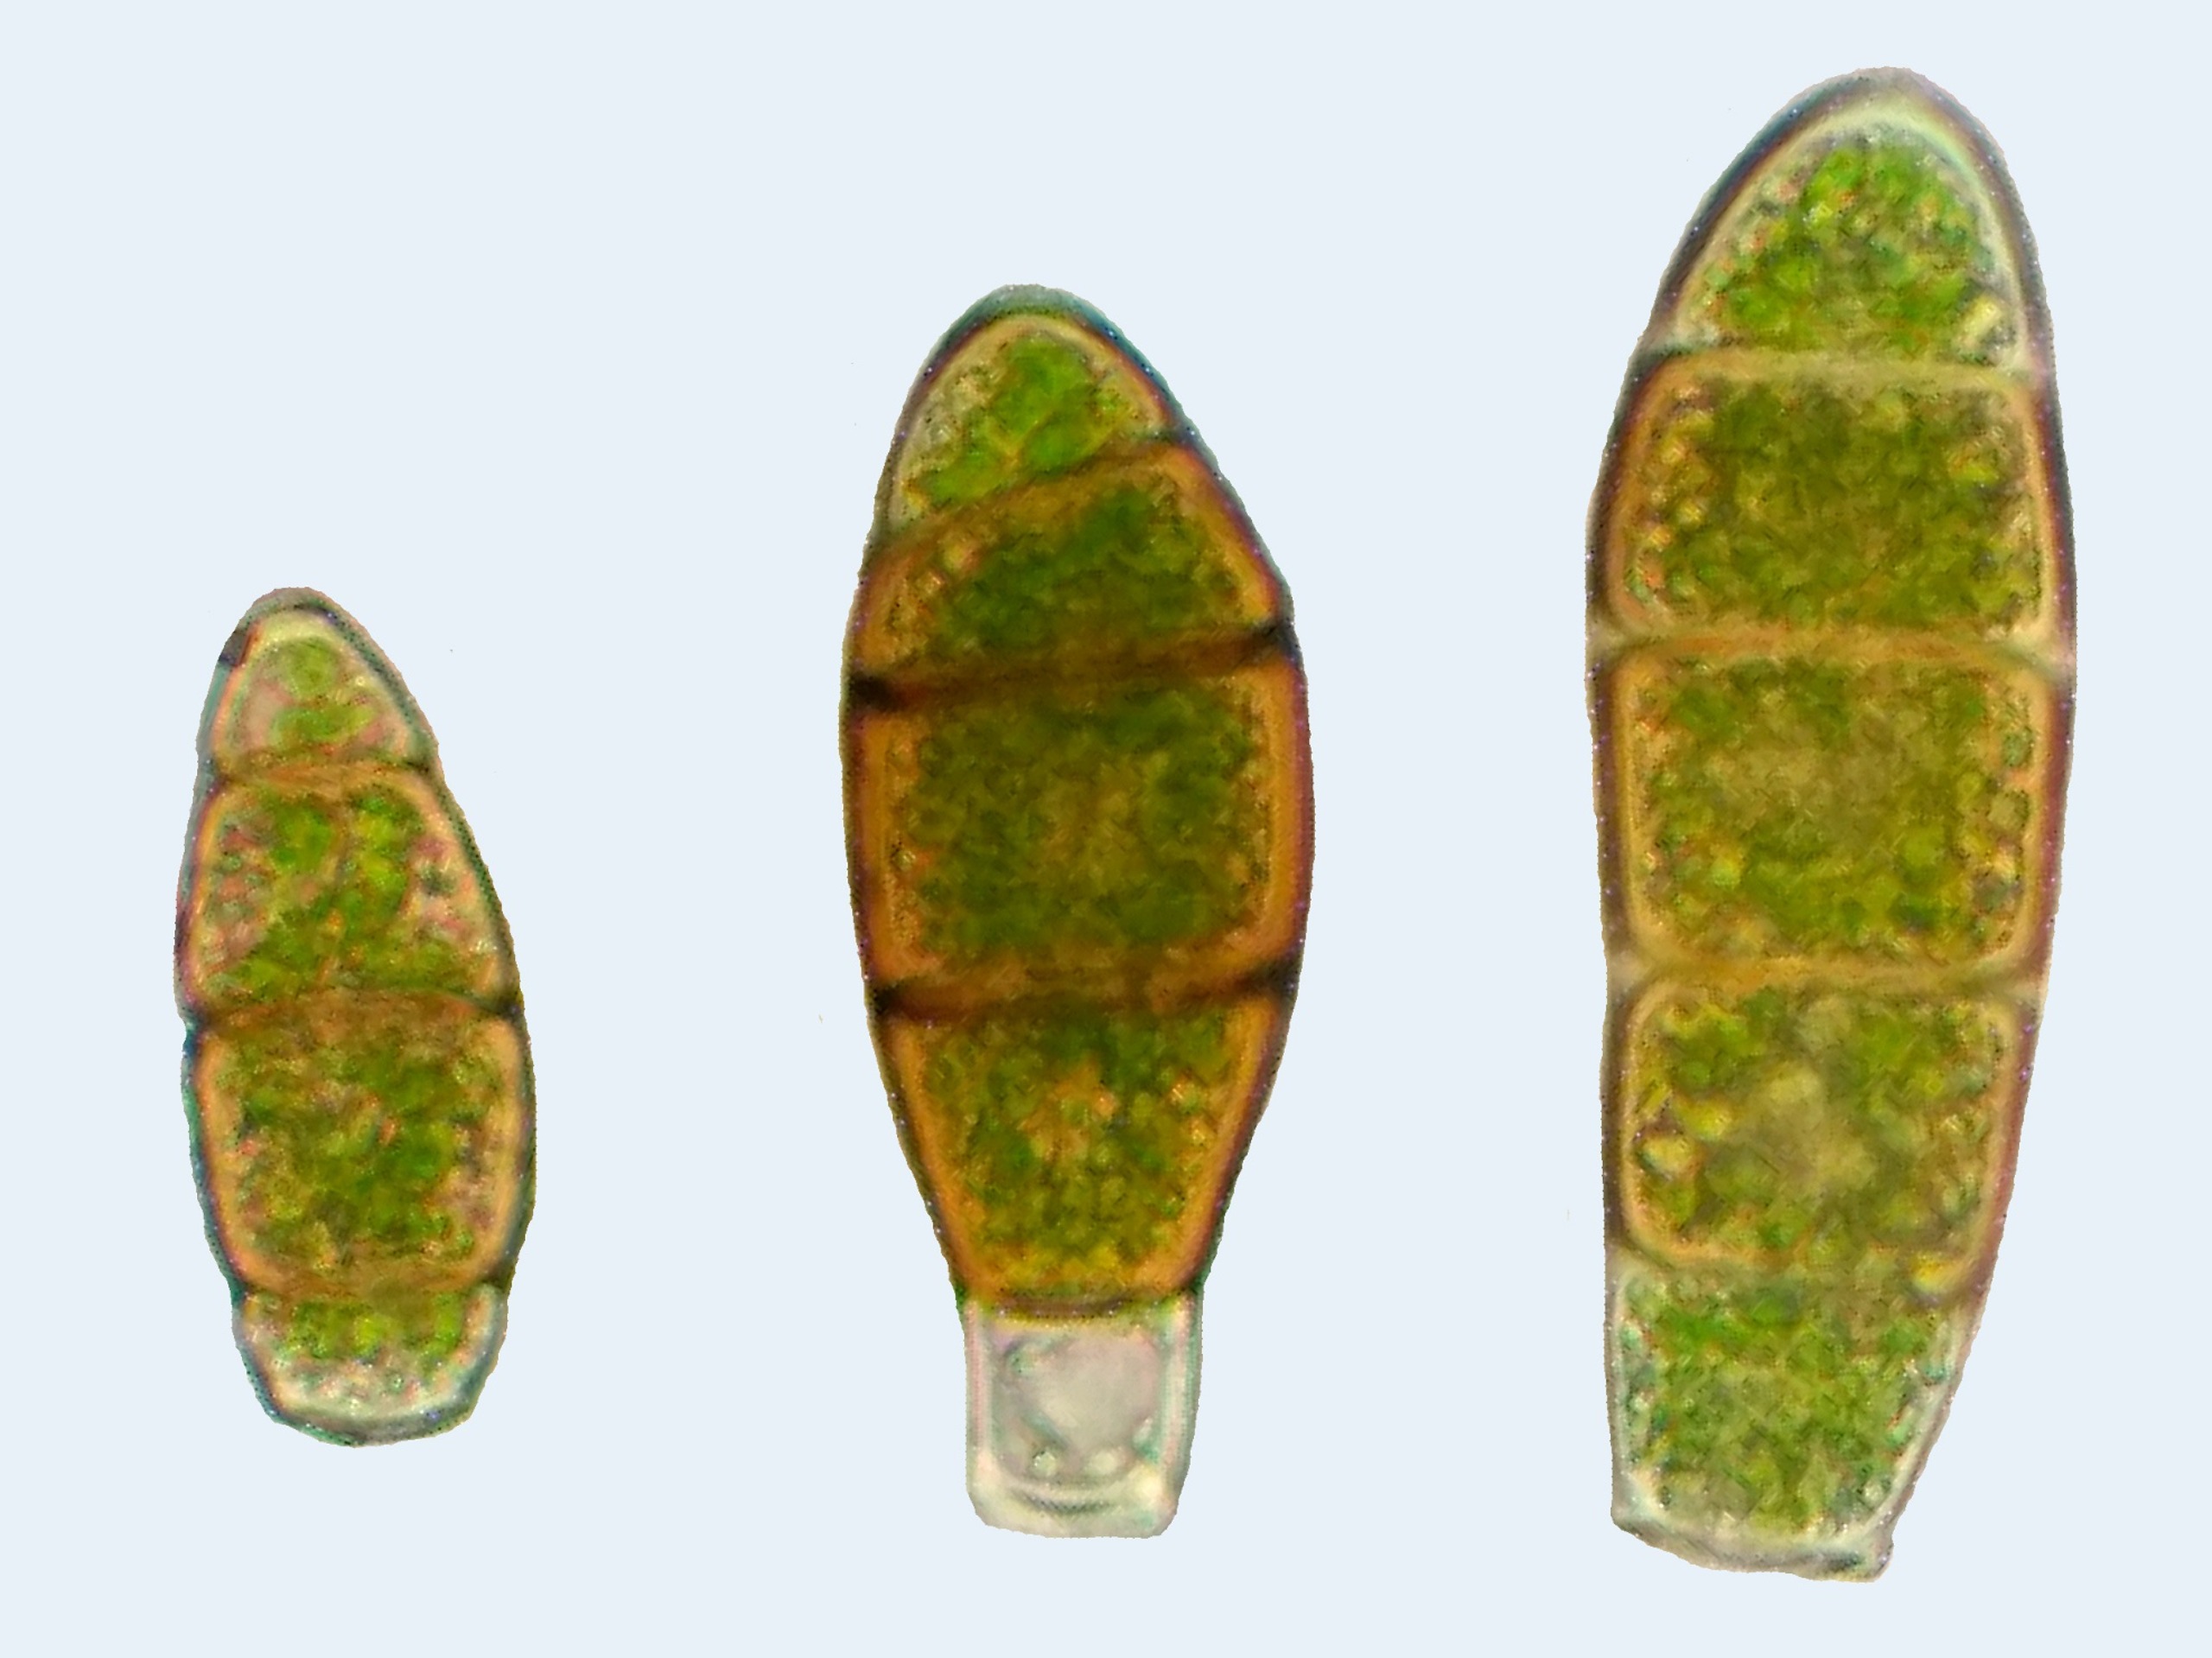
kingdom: Plantae
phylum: Bryophyta
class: Bryopsida
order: Orthotrichales
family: Orthotrichaceae
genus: Zygodon
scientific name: Zygodon rupestris
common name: Almindelig køllemos
